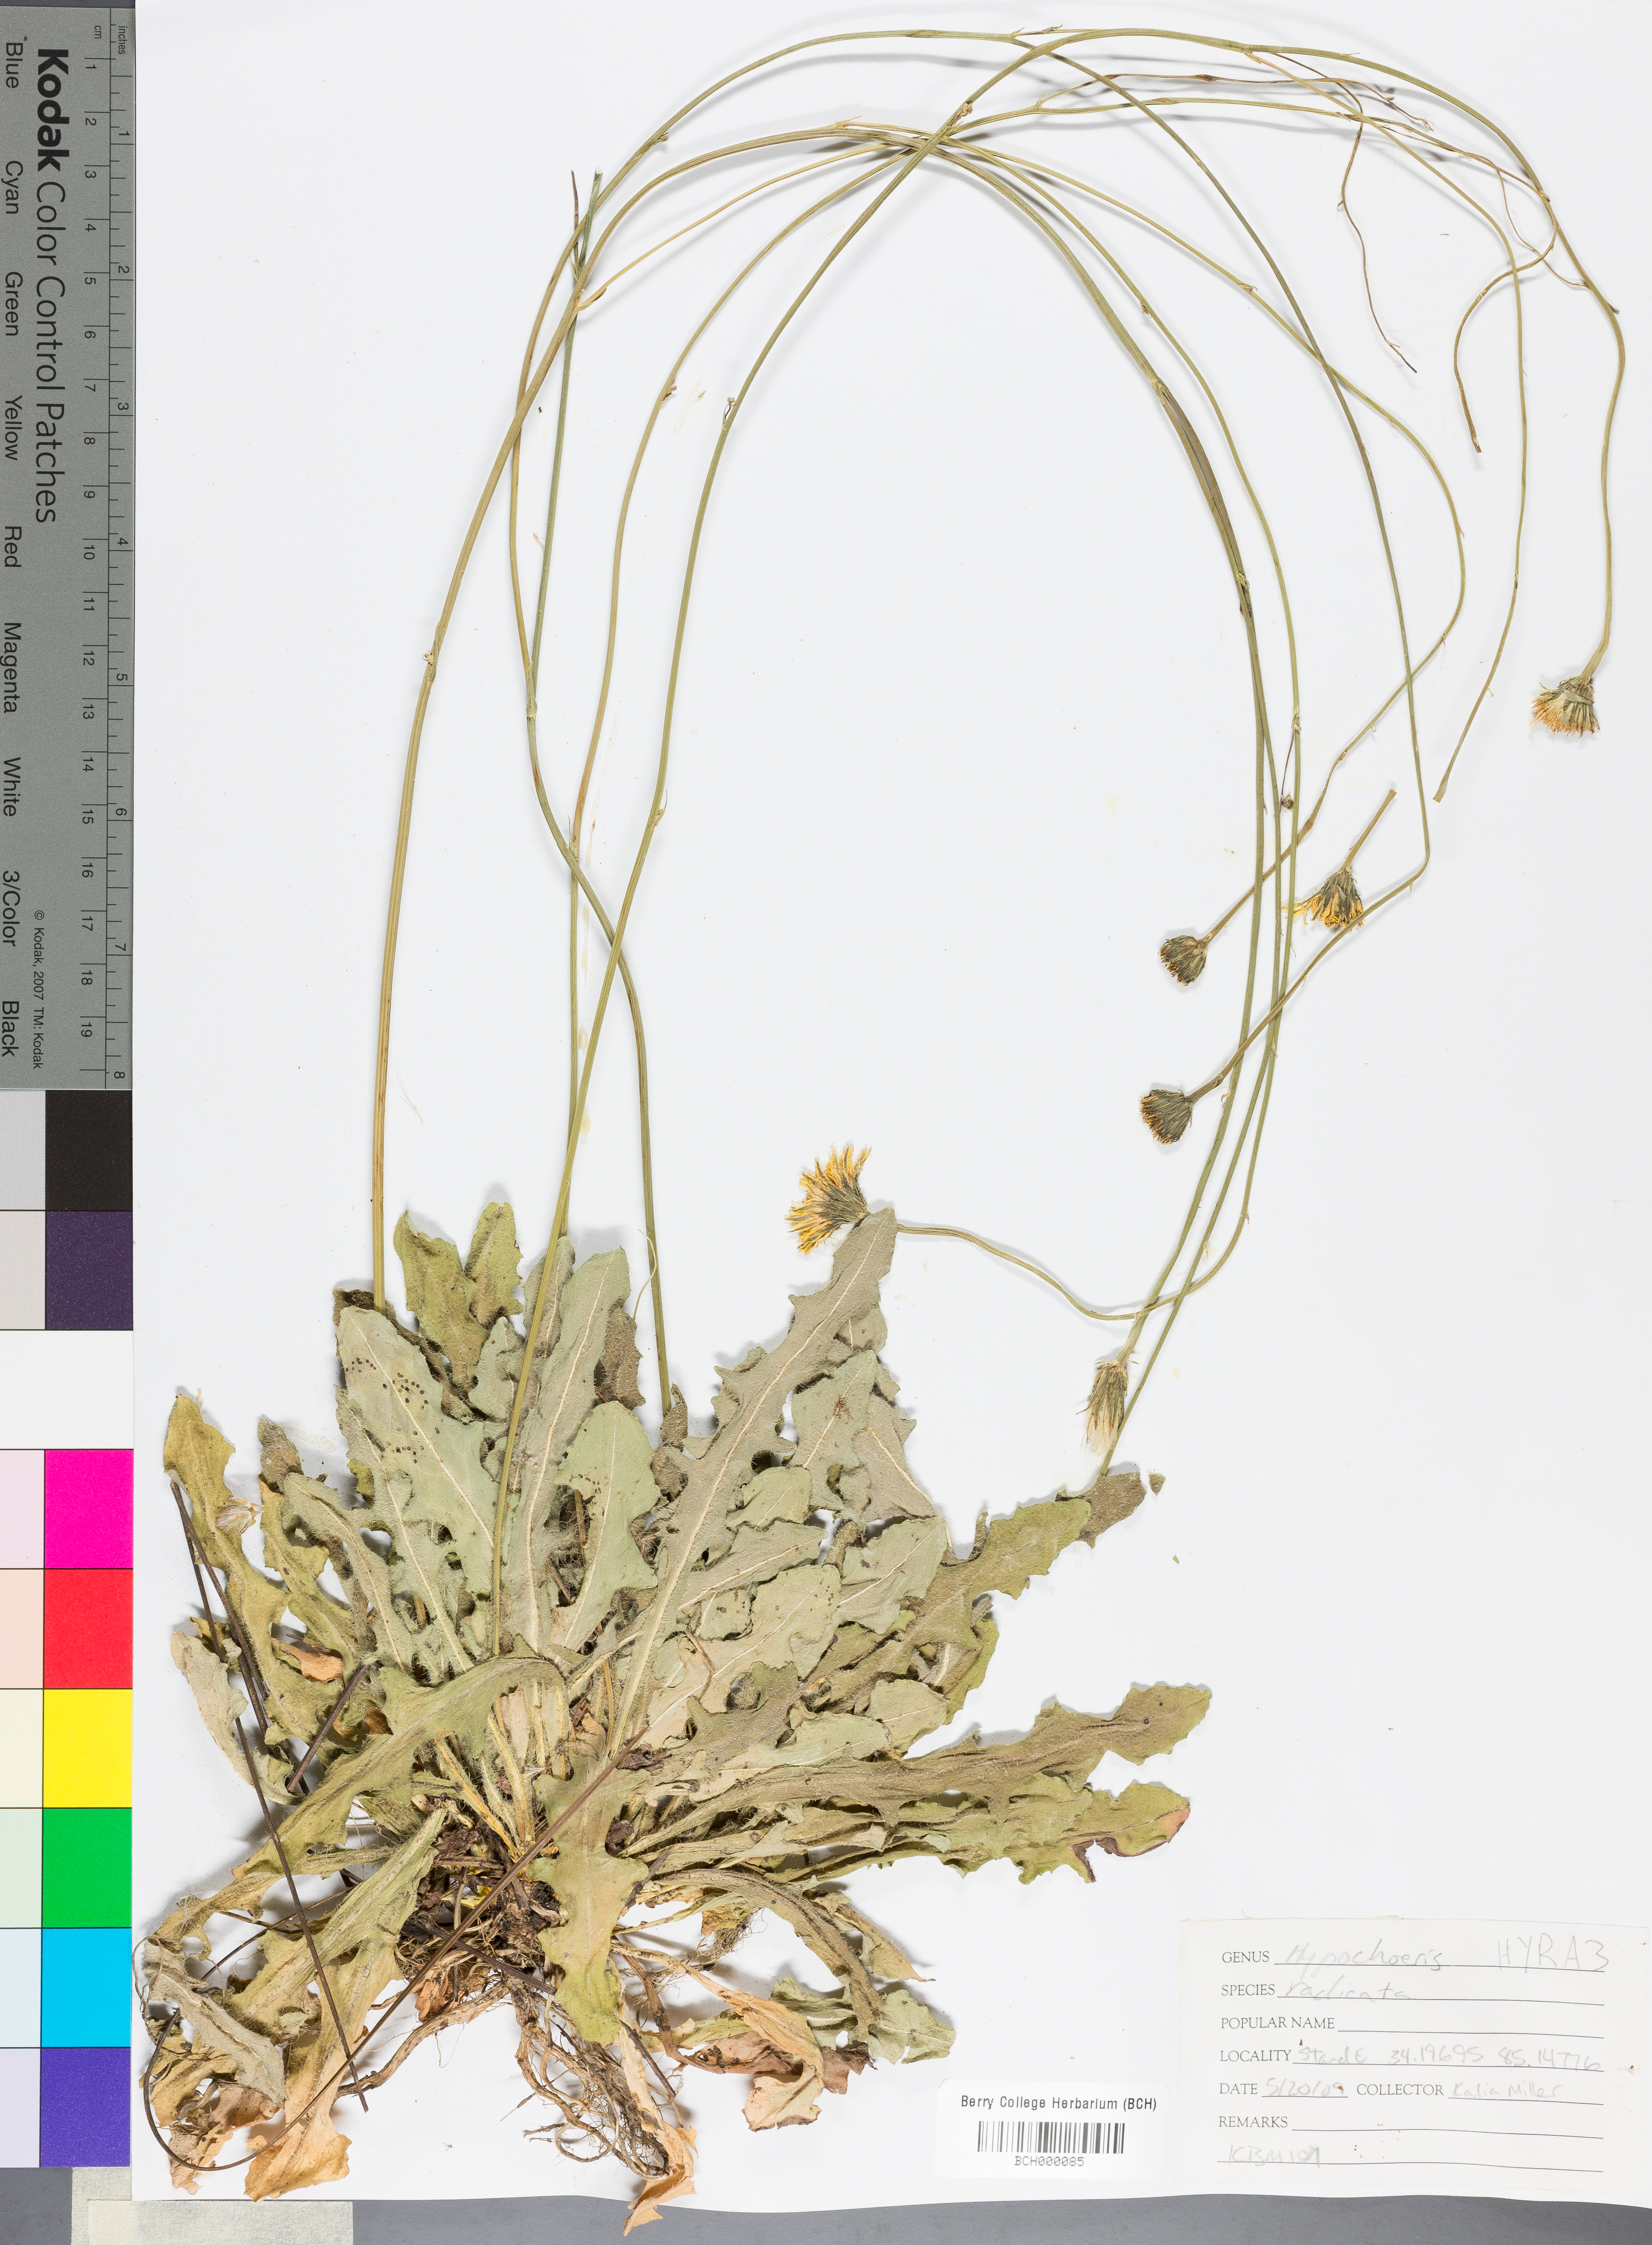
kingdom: Plantae
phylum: Tracheophyta
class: Magnoliopsida
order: Asterales
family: Asteraceae
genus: Hypochaeris
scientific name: Hypochaeris radicata
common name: Flatweed
